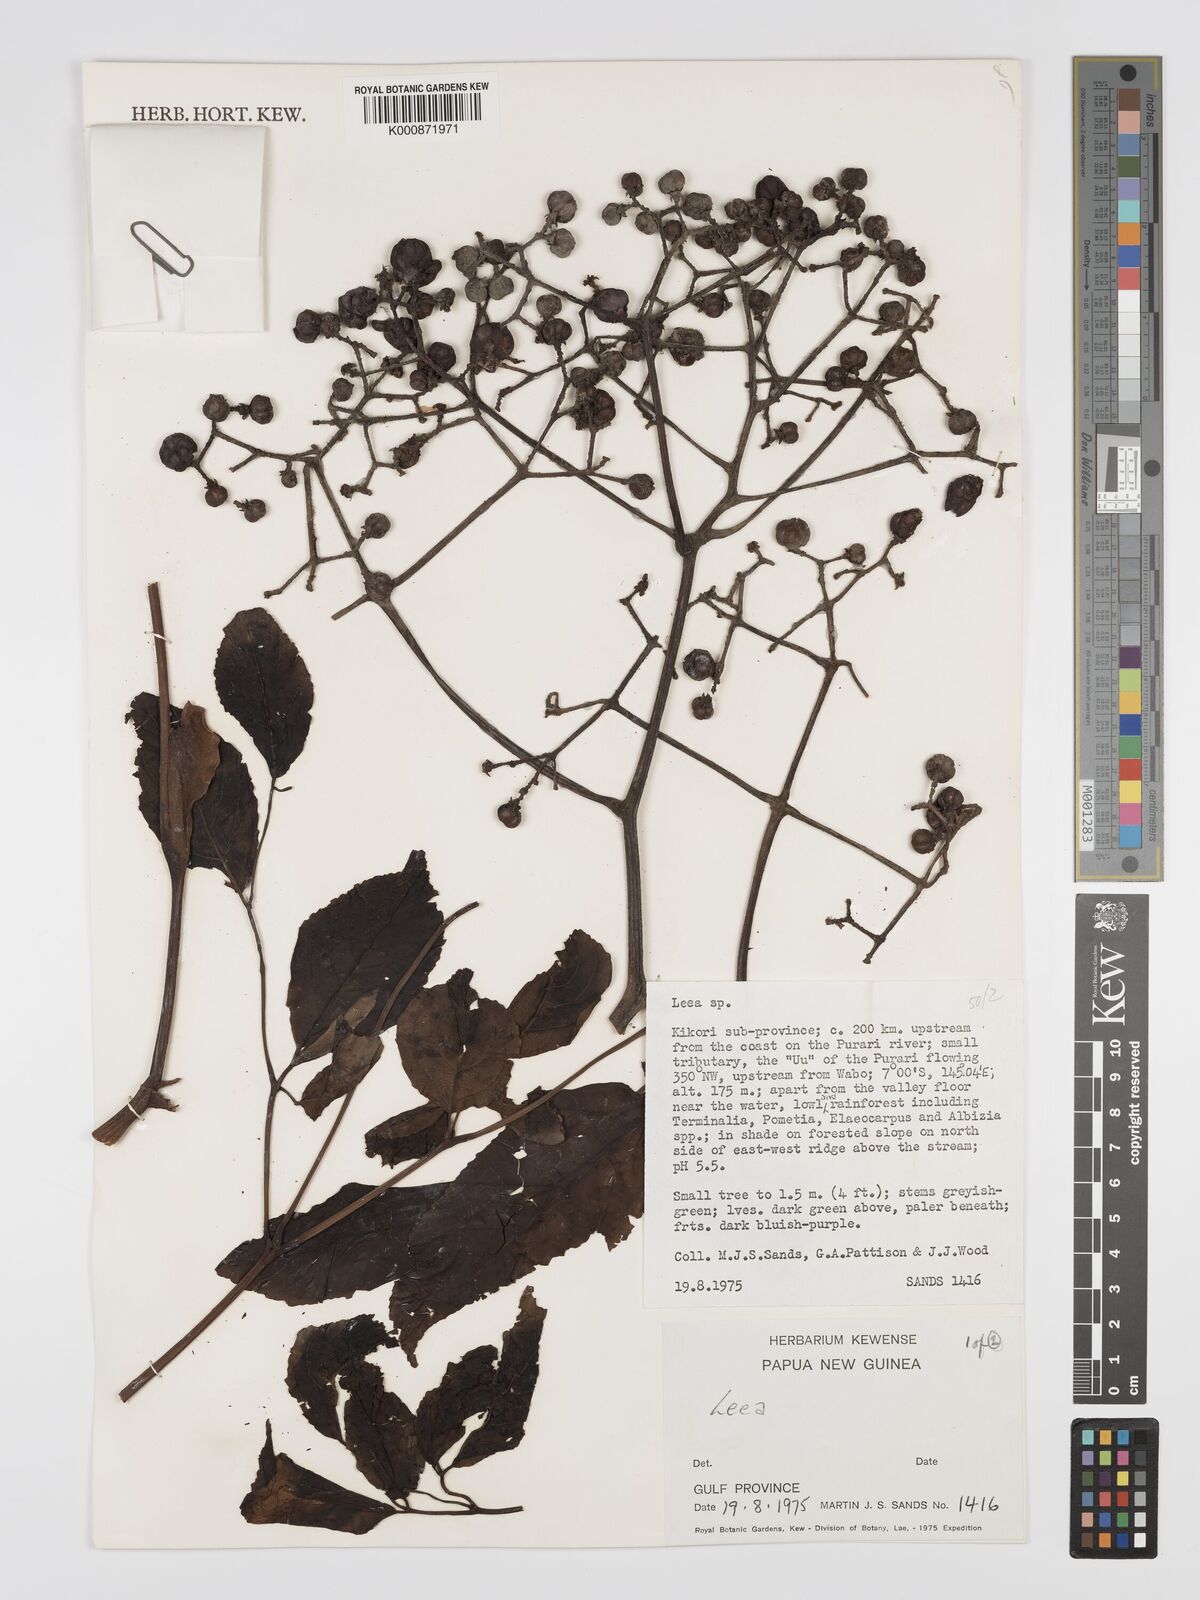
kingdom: Plantae
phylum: Tracheophyta
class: Magnoliopsida
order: Vitales
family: Vitaceae
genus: Leea
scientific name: Leea
